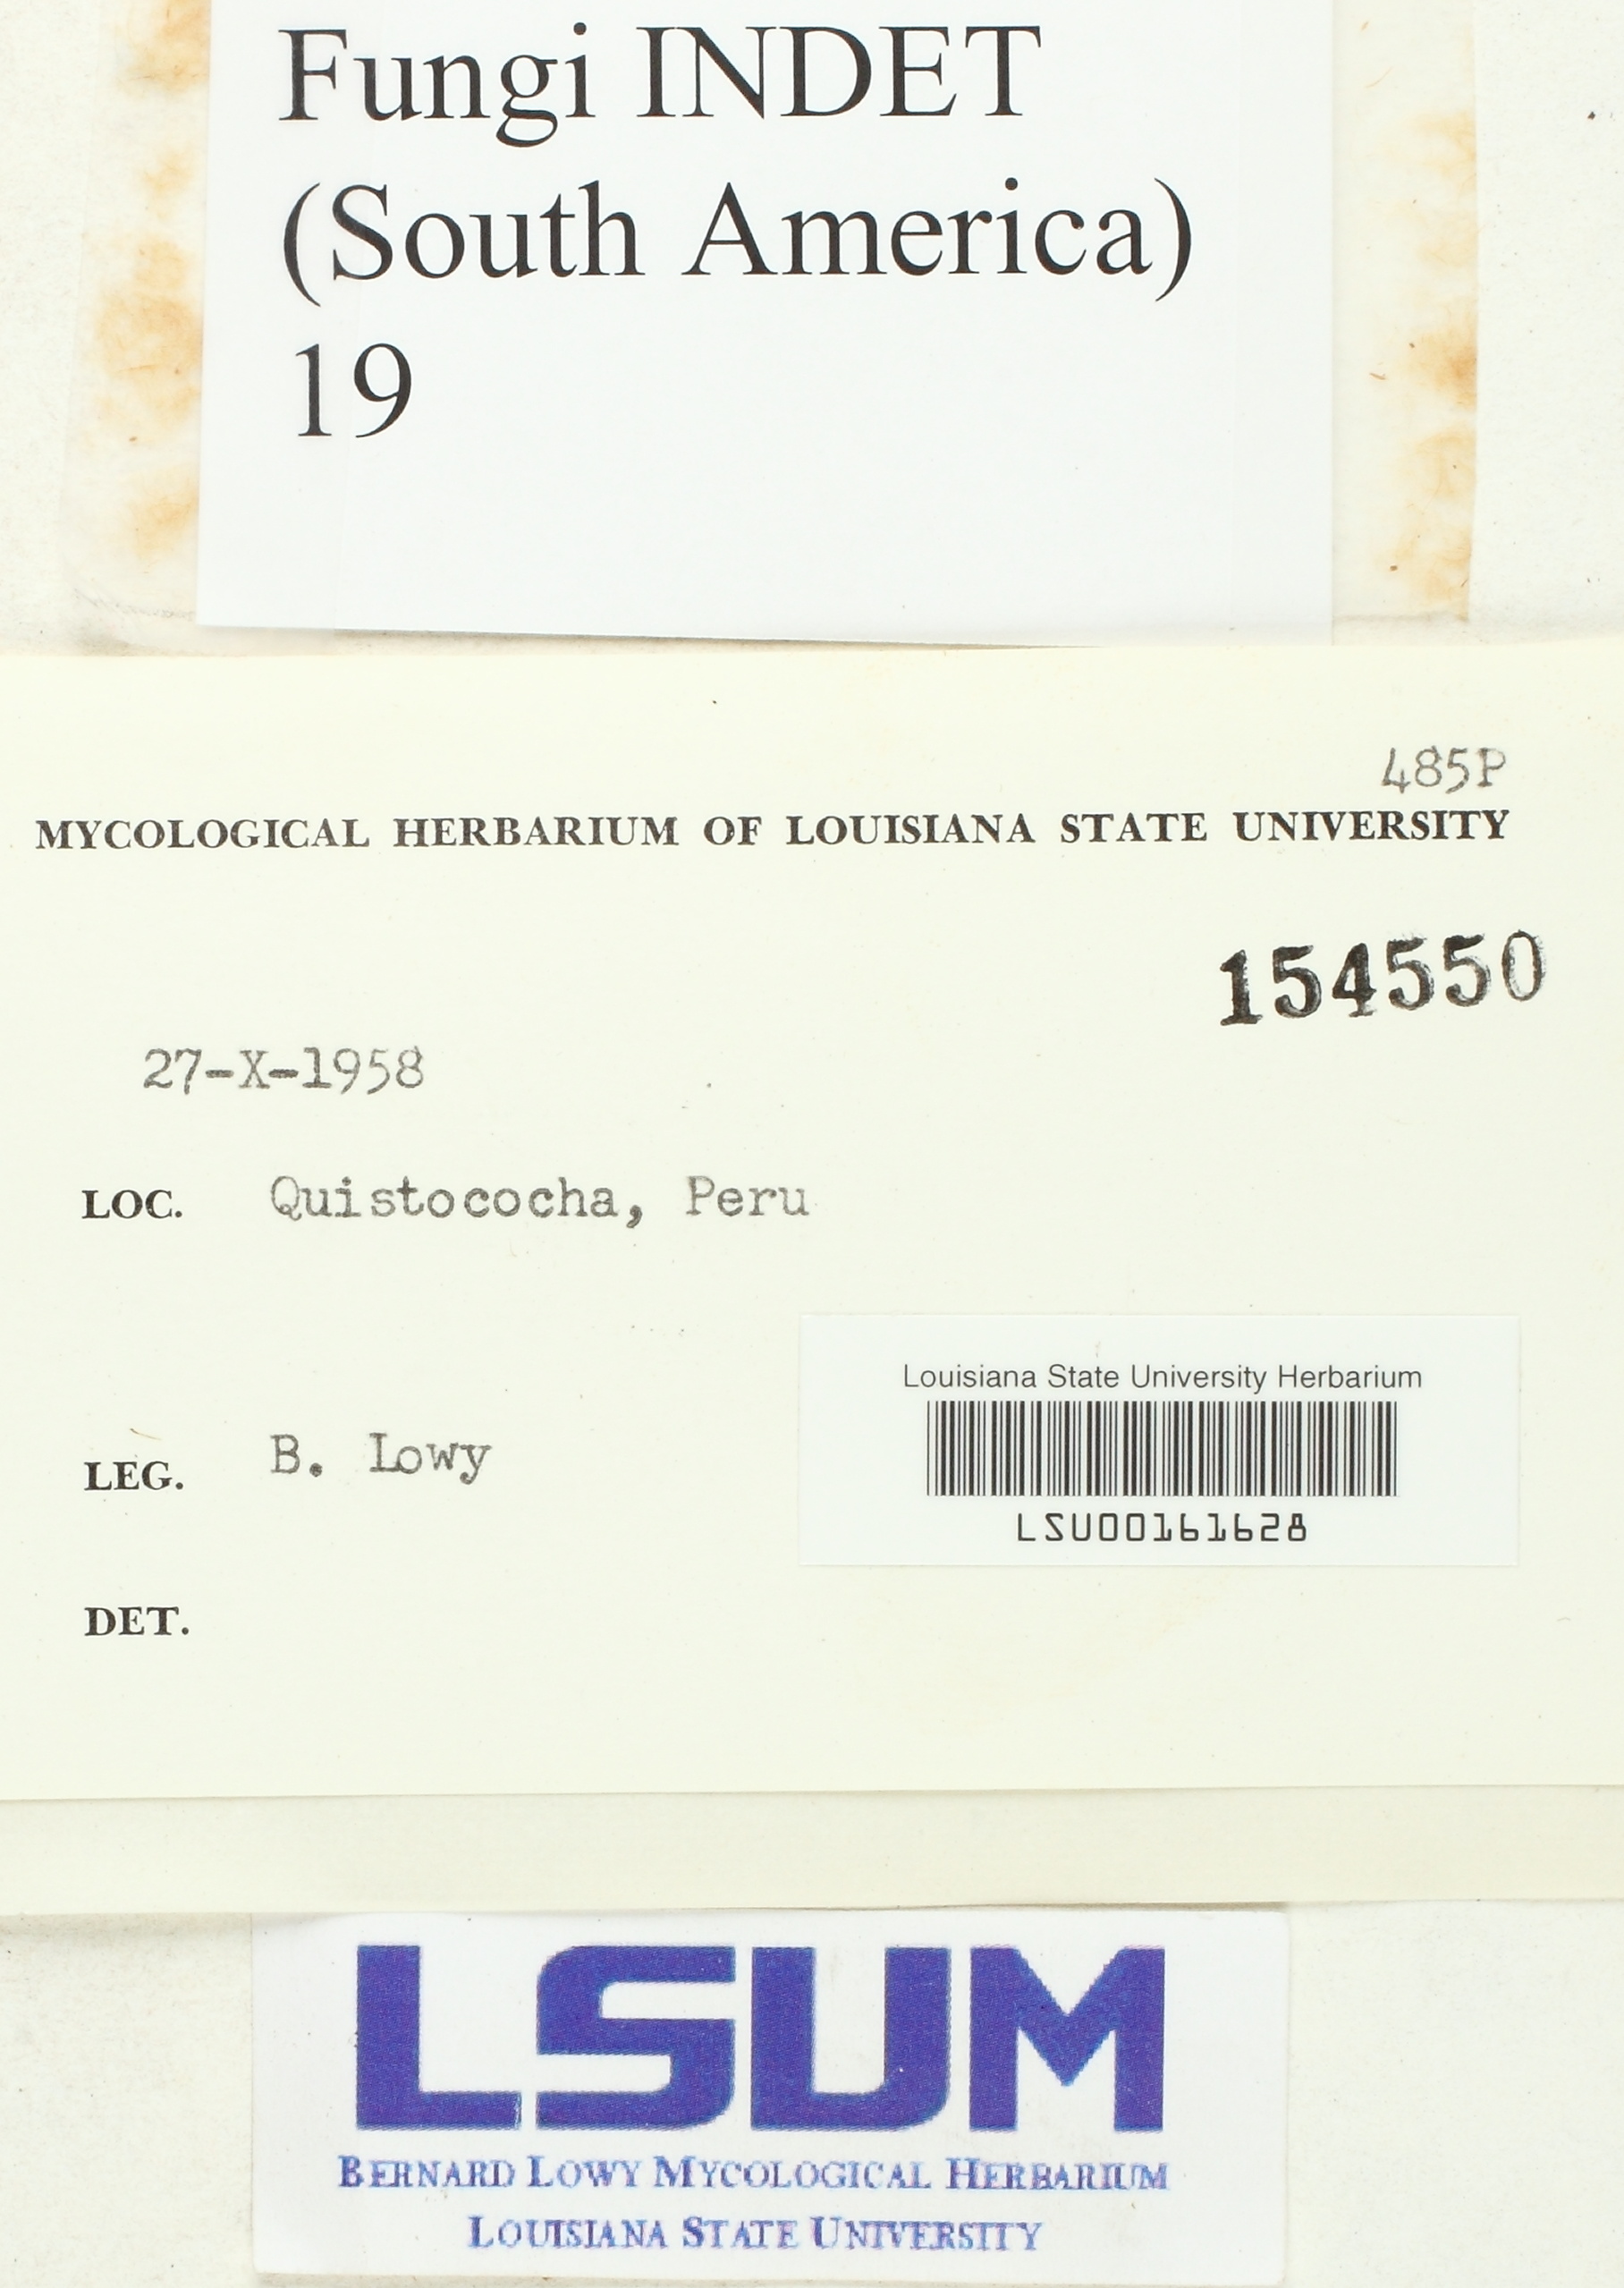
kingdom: Fungi
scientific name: Fungi
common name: Fungi
